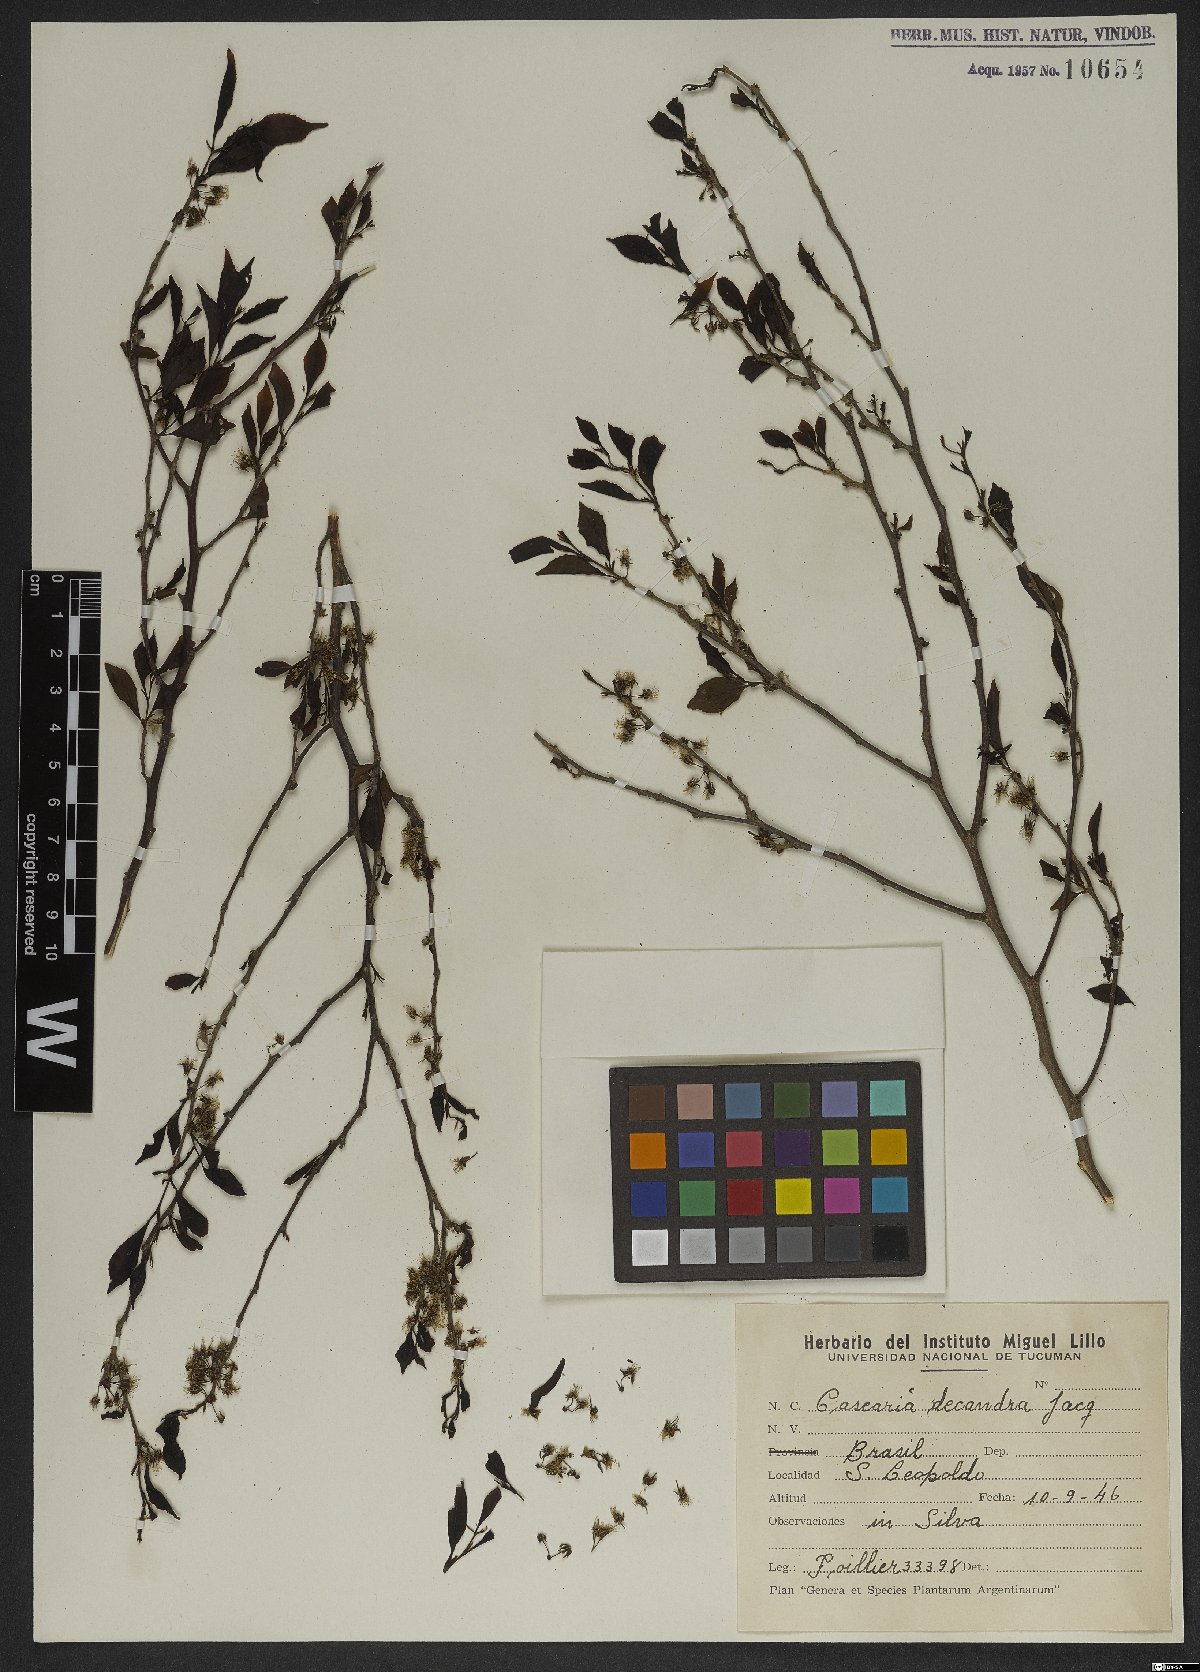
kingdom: Plantae
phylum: Tracheophyta
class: Magnoliopsida
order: Malpighiales
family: Salicaceae
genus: Casearia
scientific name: Casearia decandra
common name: Crack open
